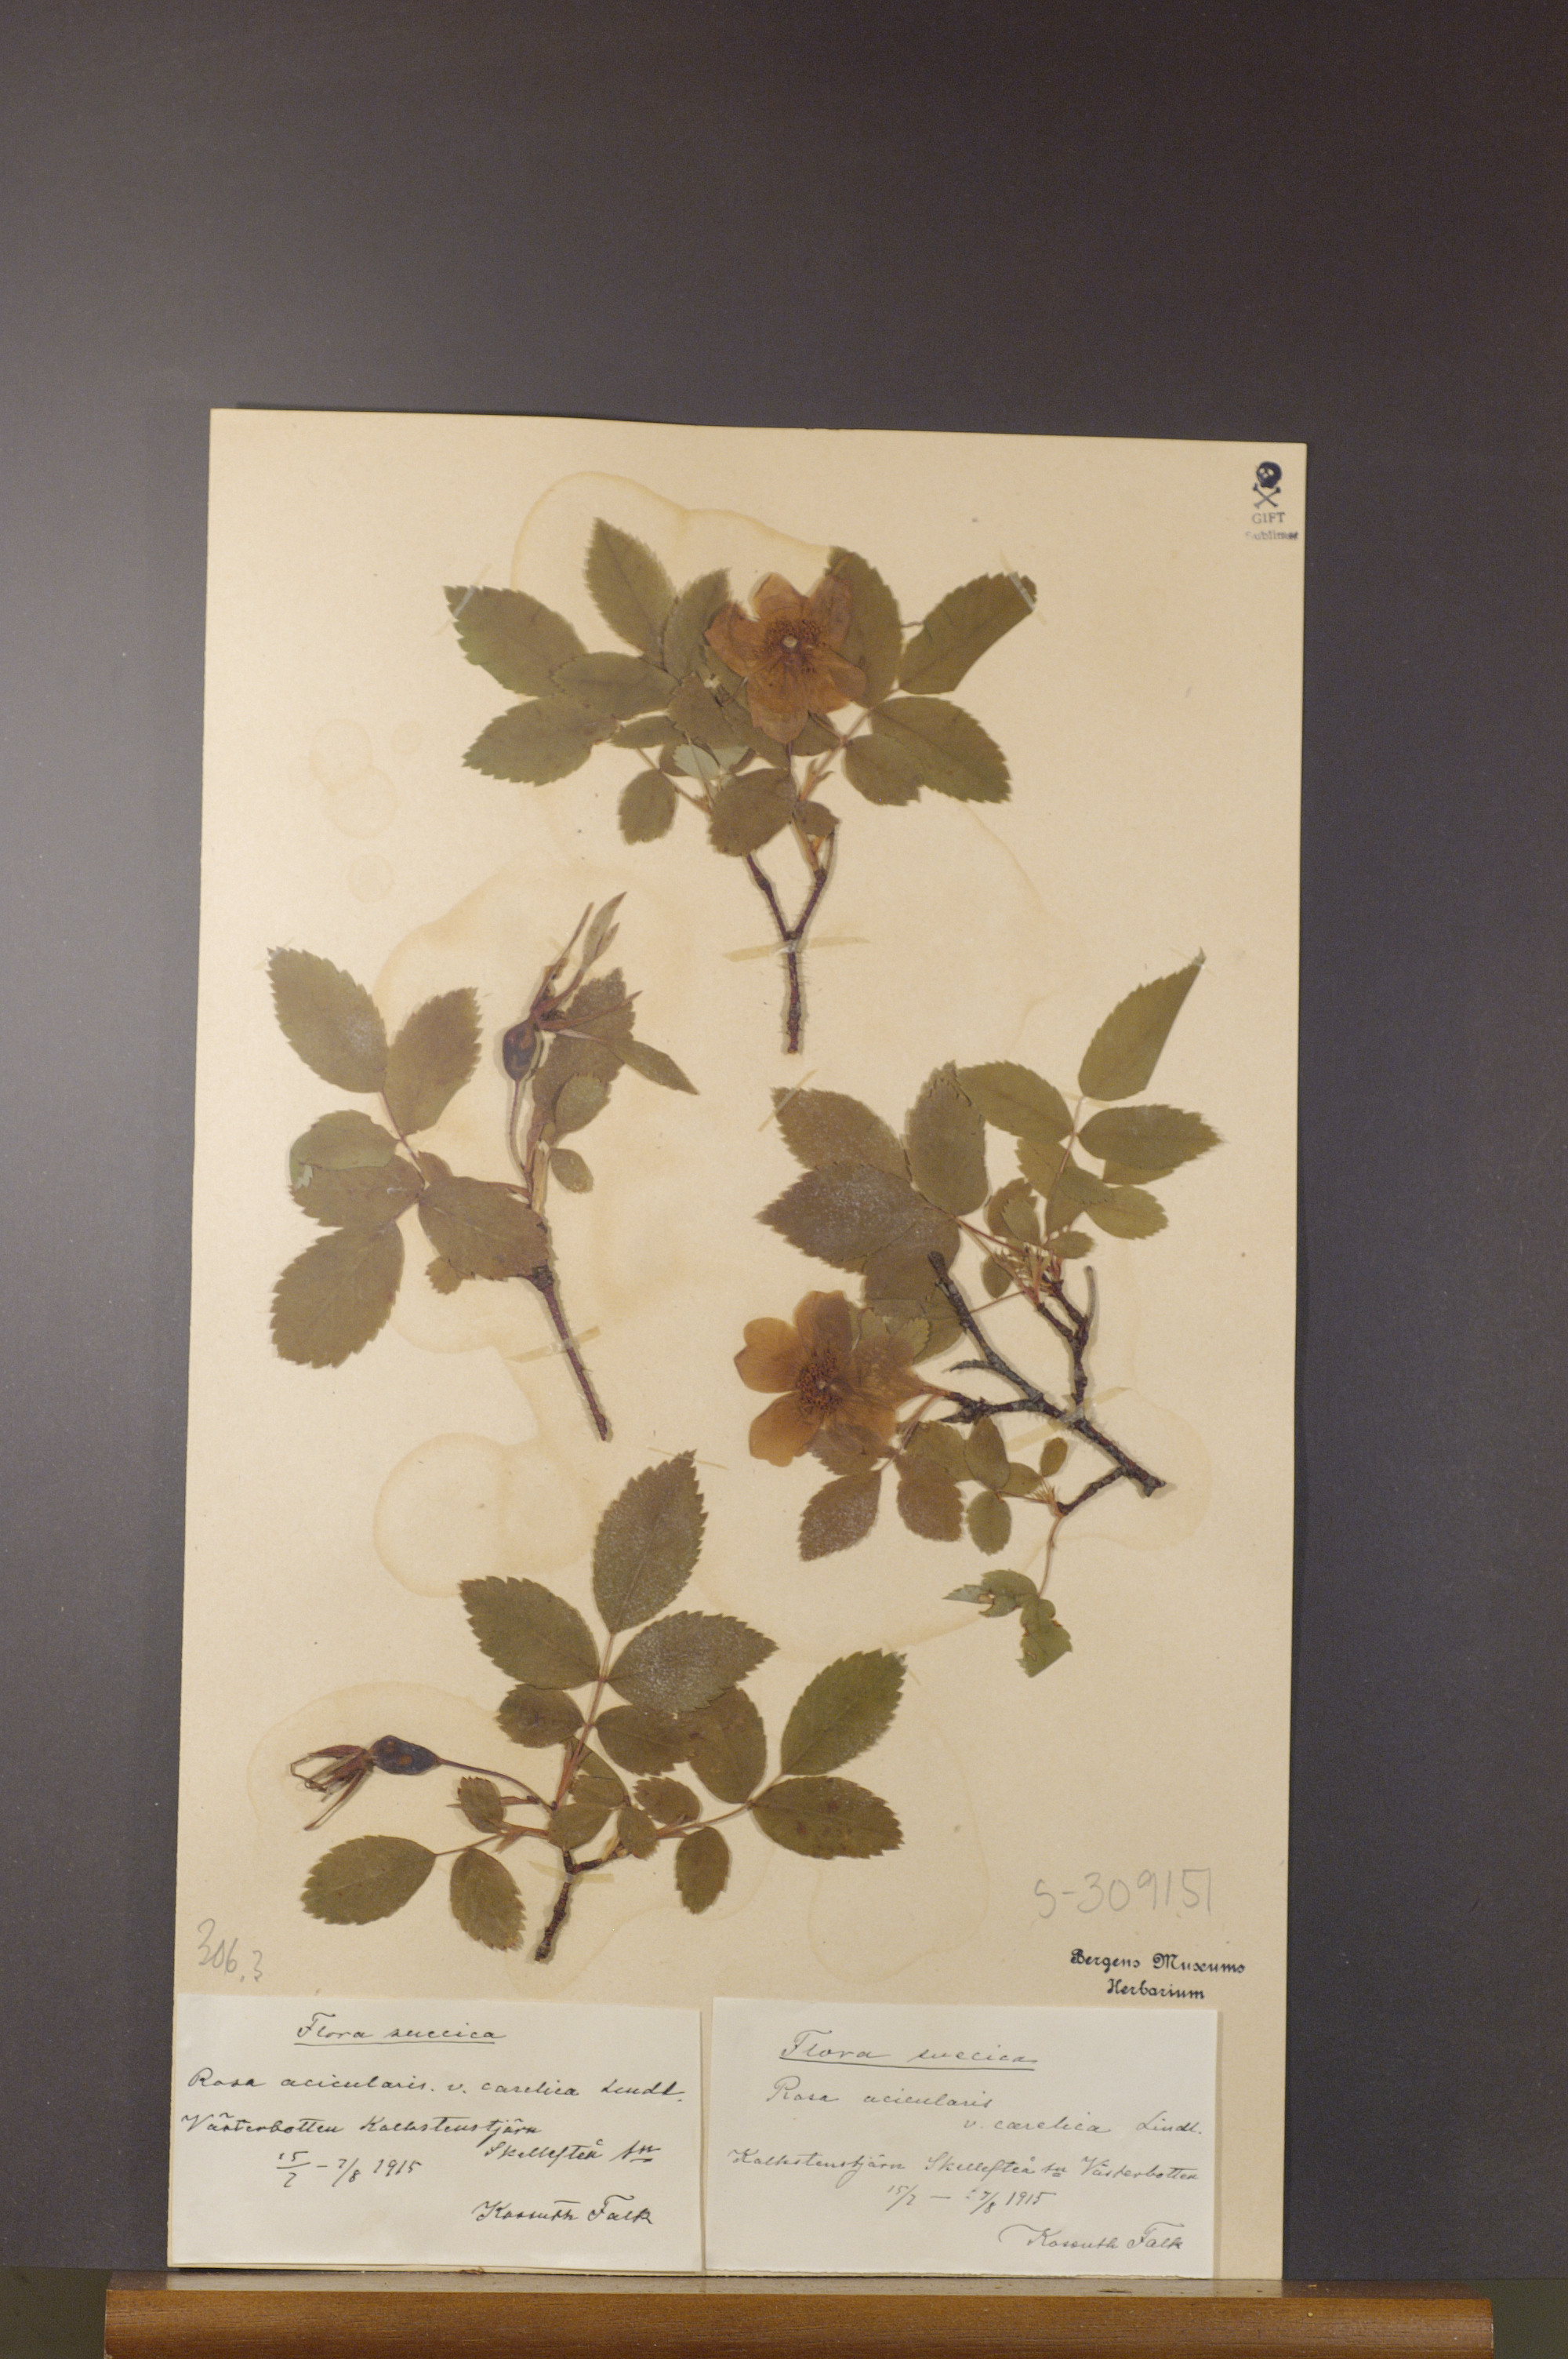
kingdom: Plantae
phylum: Tracheophyta
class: Magnoliopsida
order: Rosales
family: Rosaceae
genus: Rosa
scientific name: Rosa acicularis
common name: Prickly rose
